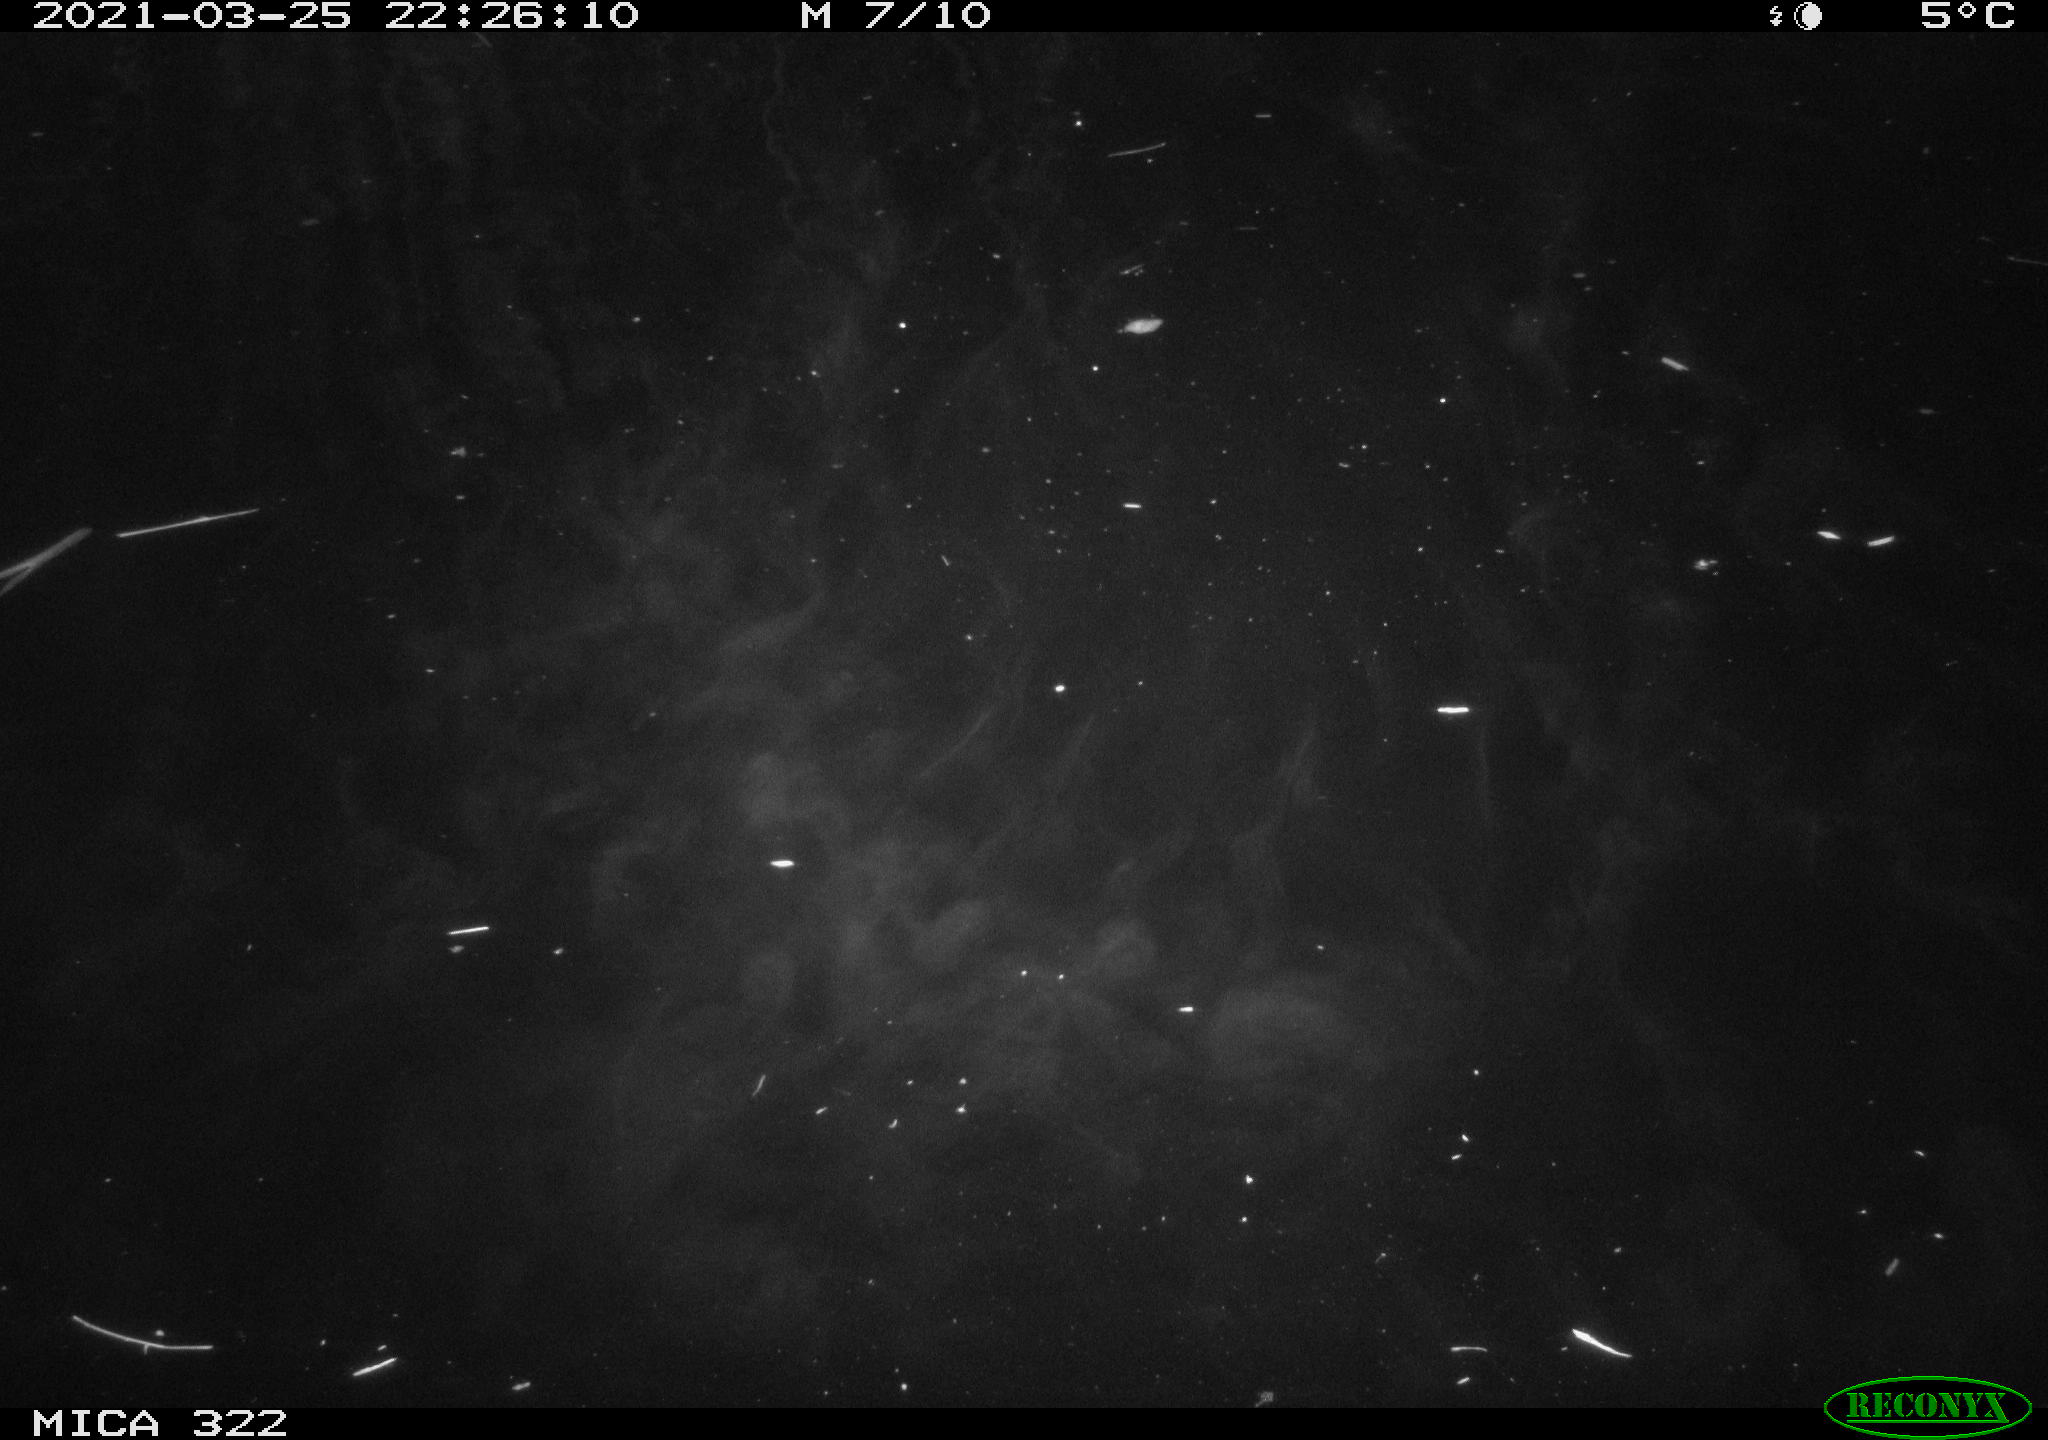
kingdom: Animalia
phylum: Chordata
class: Aves
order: Anseriformes
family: Anatidae
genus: Anas
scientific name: Anas platyrhynchos
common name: Mallard
